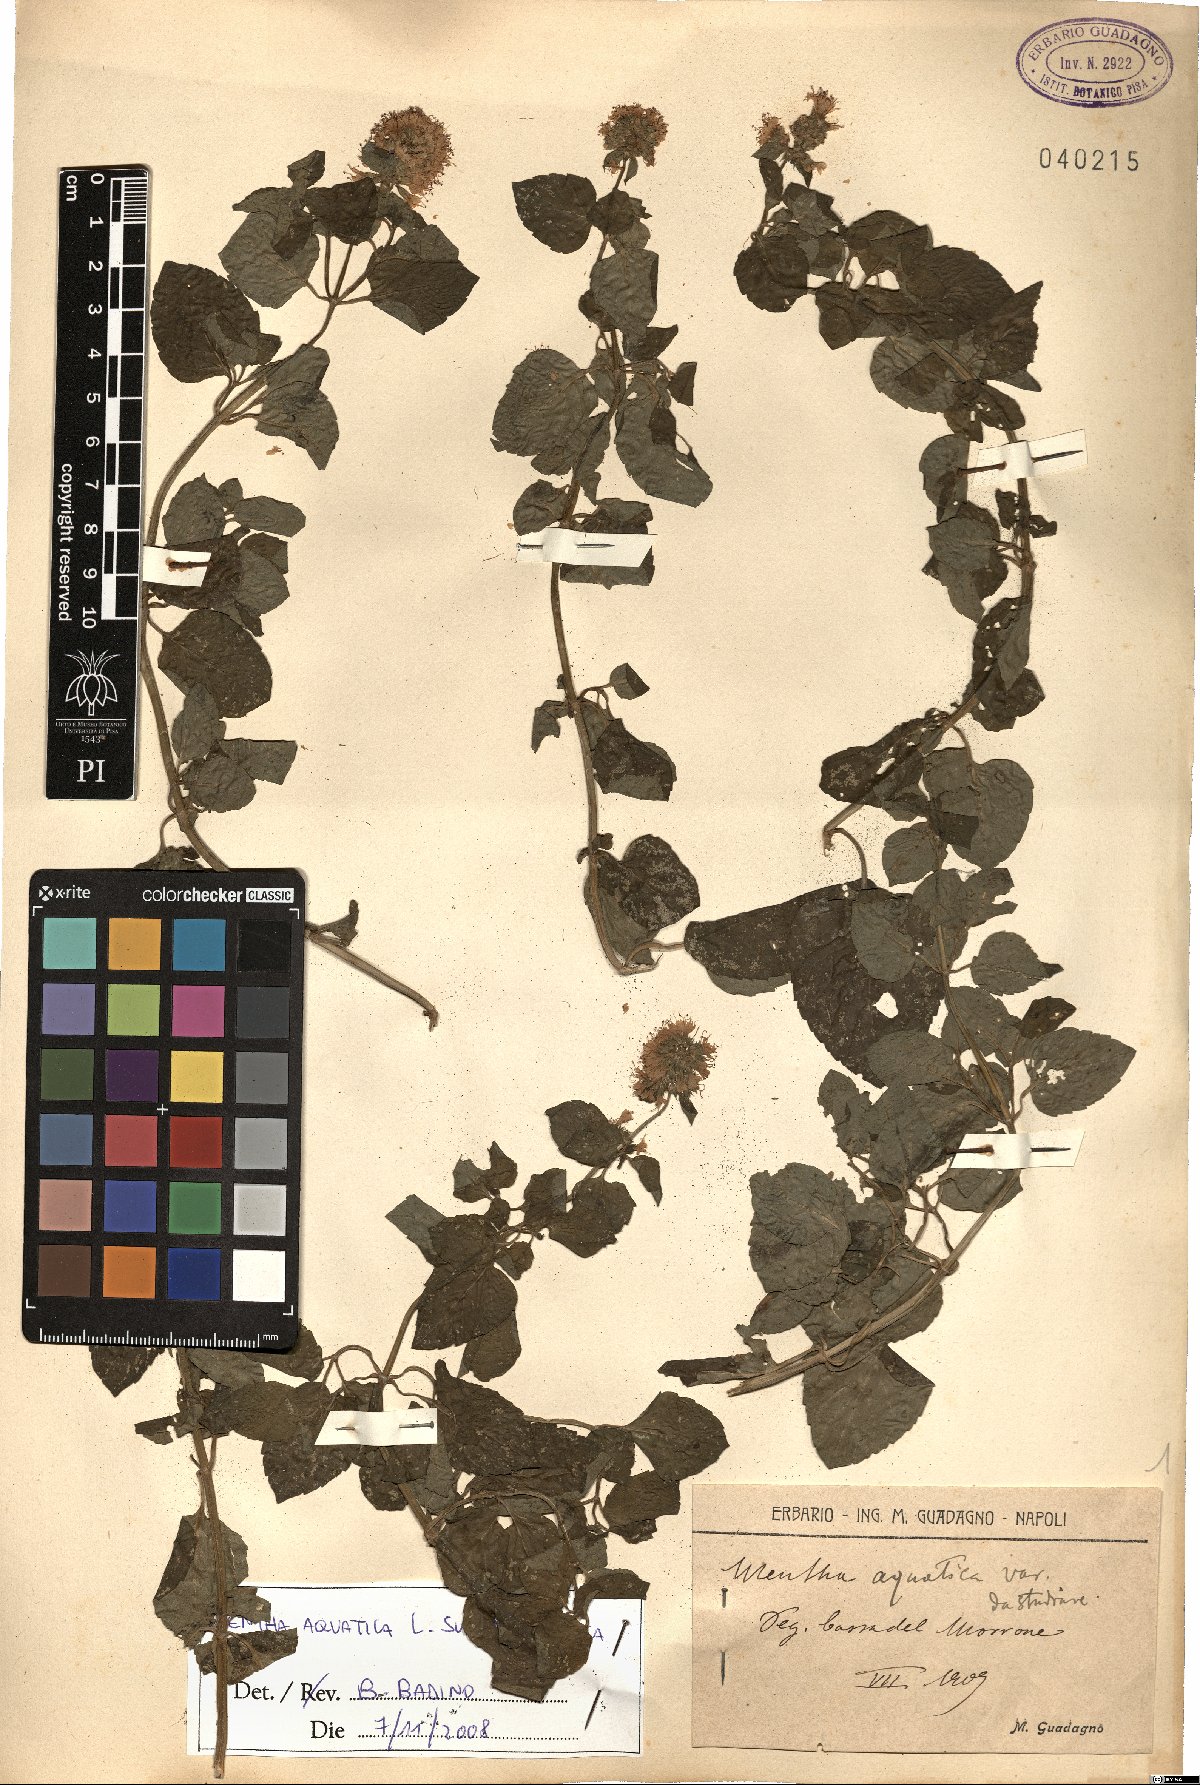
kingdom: Plantae
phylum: Tracheophyta
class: Magnoliopsida
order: Lamiales
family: Lamiaceae
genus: Mentha
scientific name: Mentha aquatica
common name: Water mint
